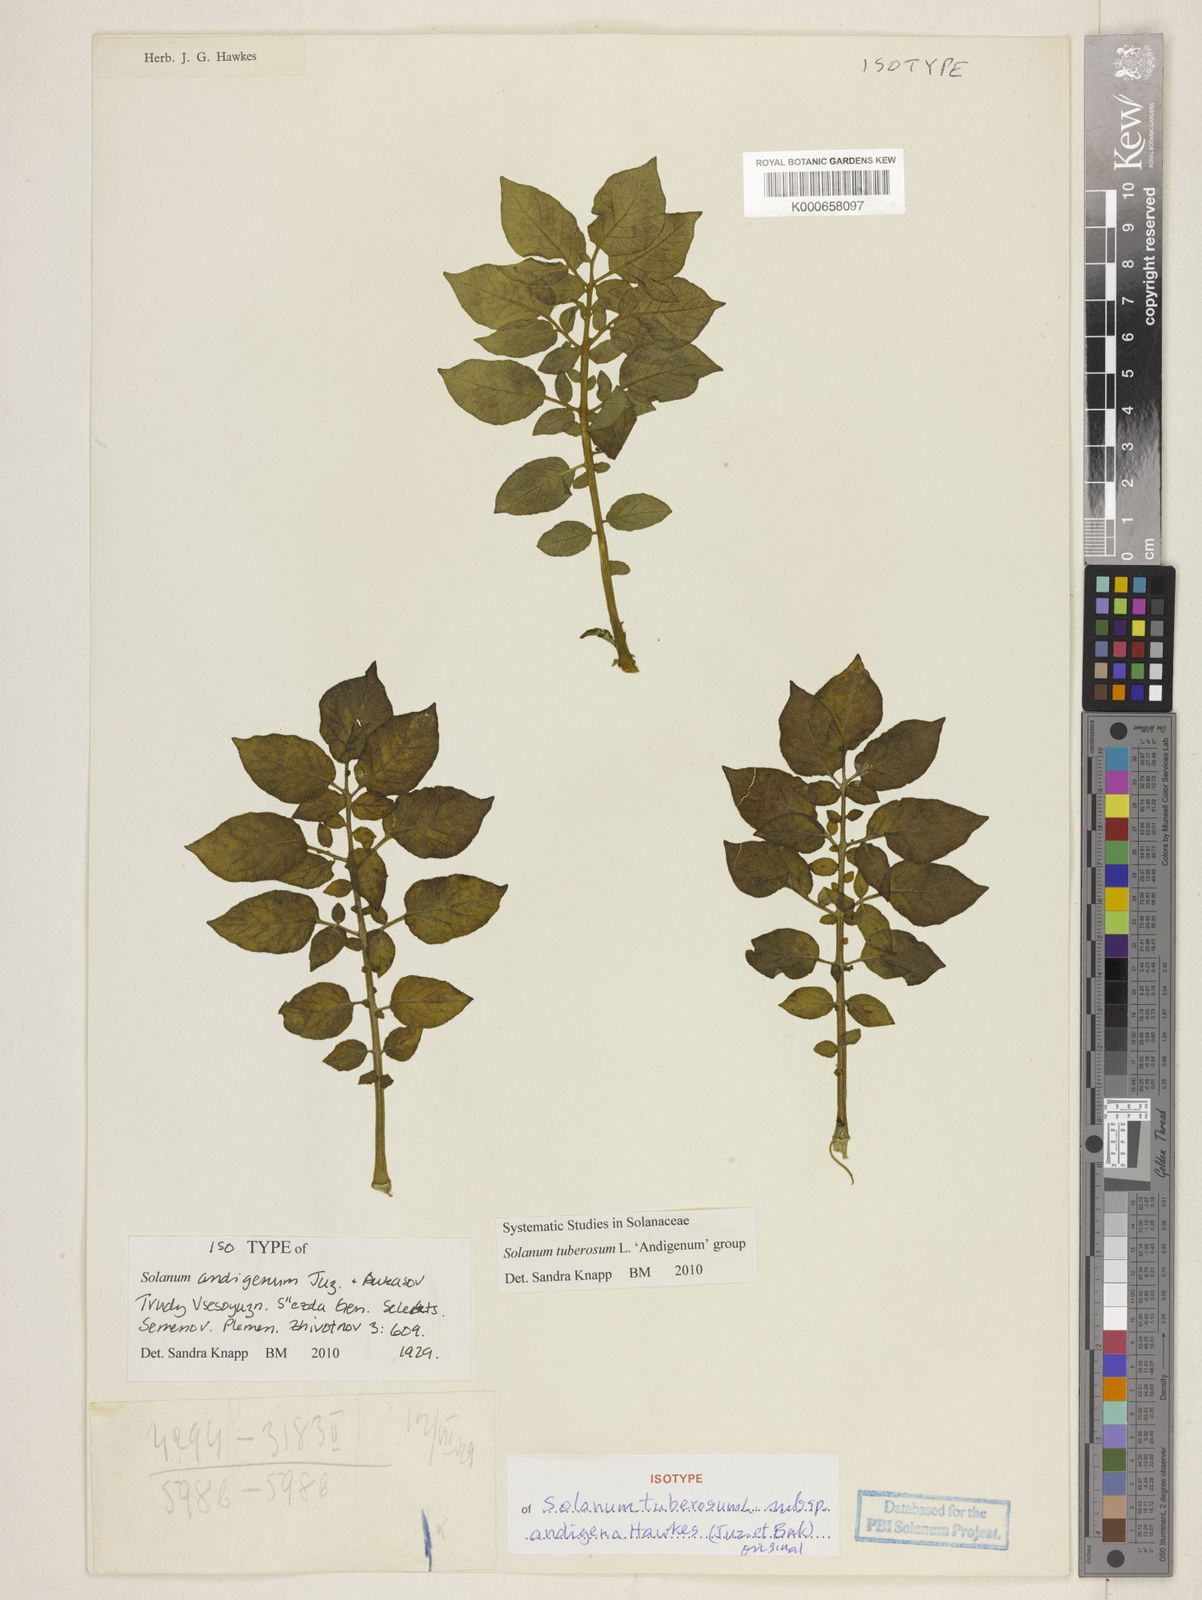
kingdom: Plantae
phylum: Tracheophyta
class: Magnoliopsida
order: Solanales
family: Solanaceae
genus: Solanum
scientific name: Solanum tuberosum
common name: Potato
